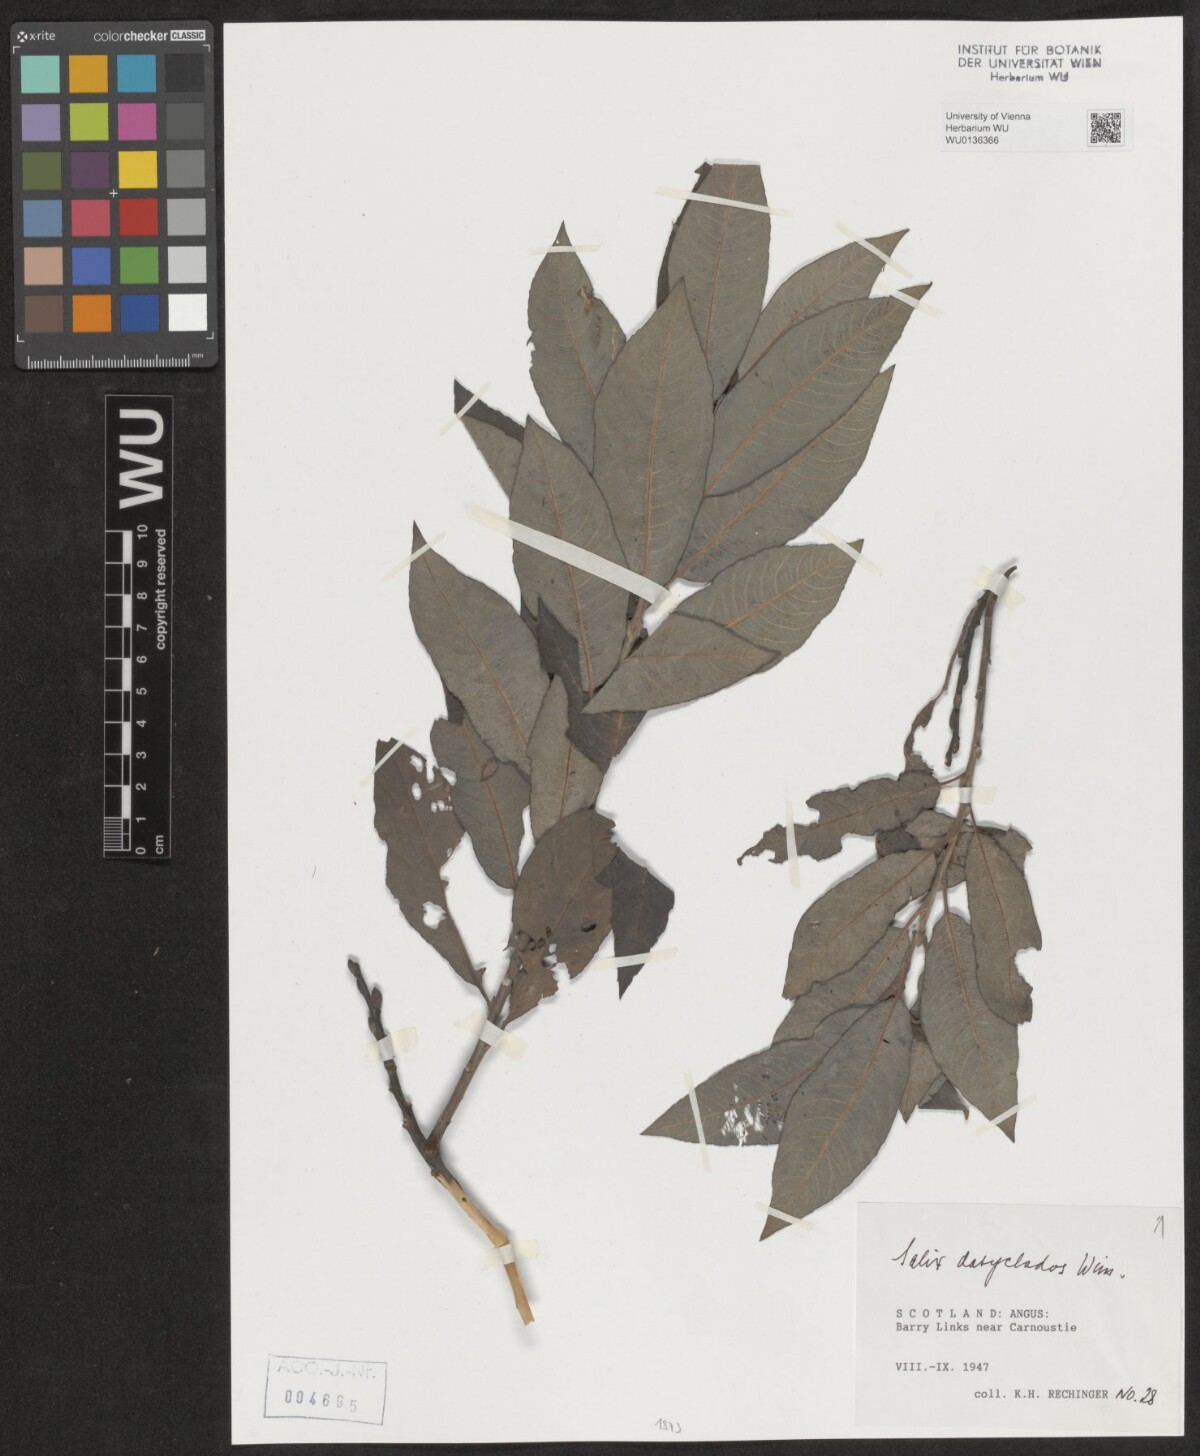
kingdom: Plantae
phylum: Tracheophyta
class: Magnoliopsida
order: Malpighiales
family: Salicaceae
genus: Salix
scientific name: Salix gmelinii
